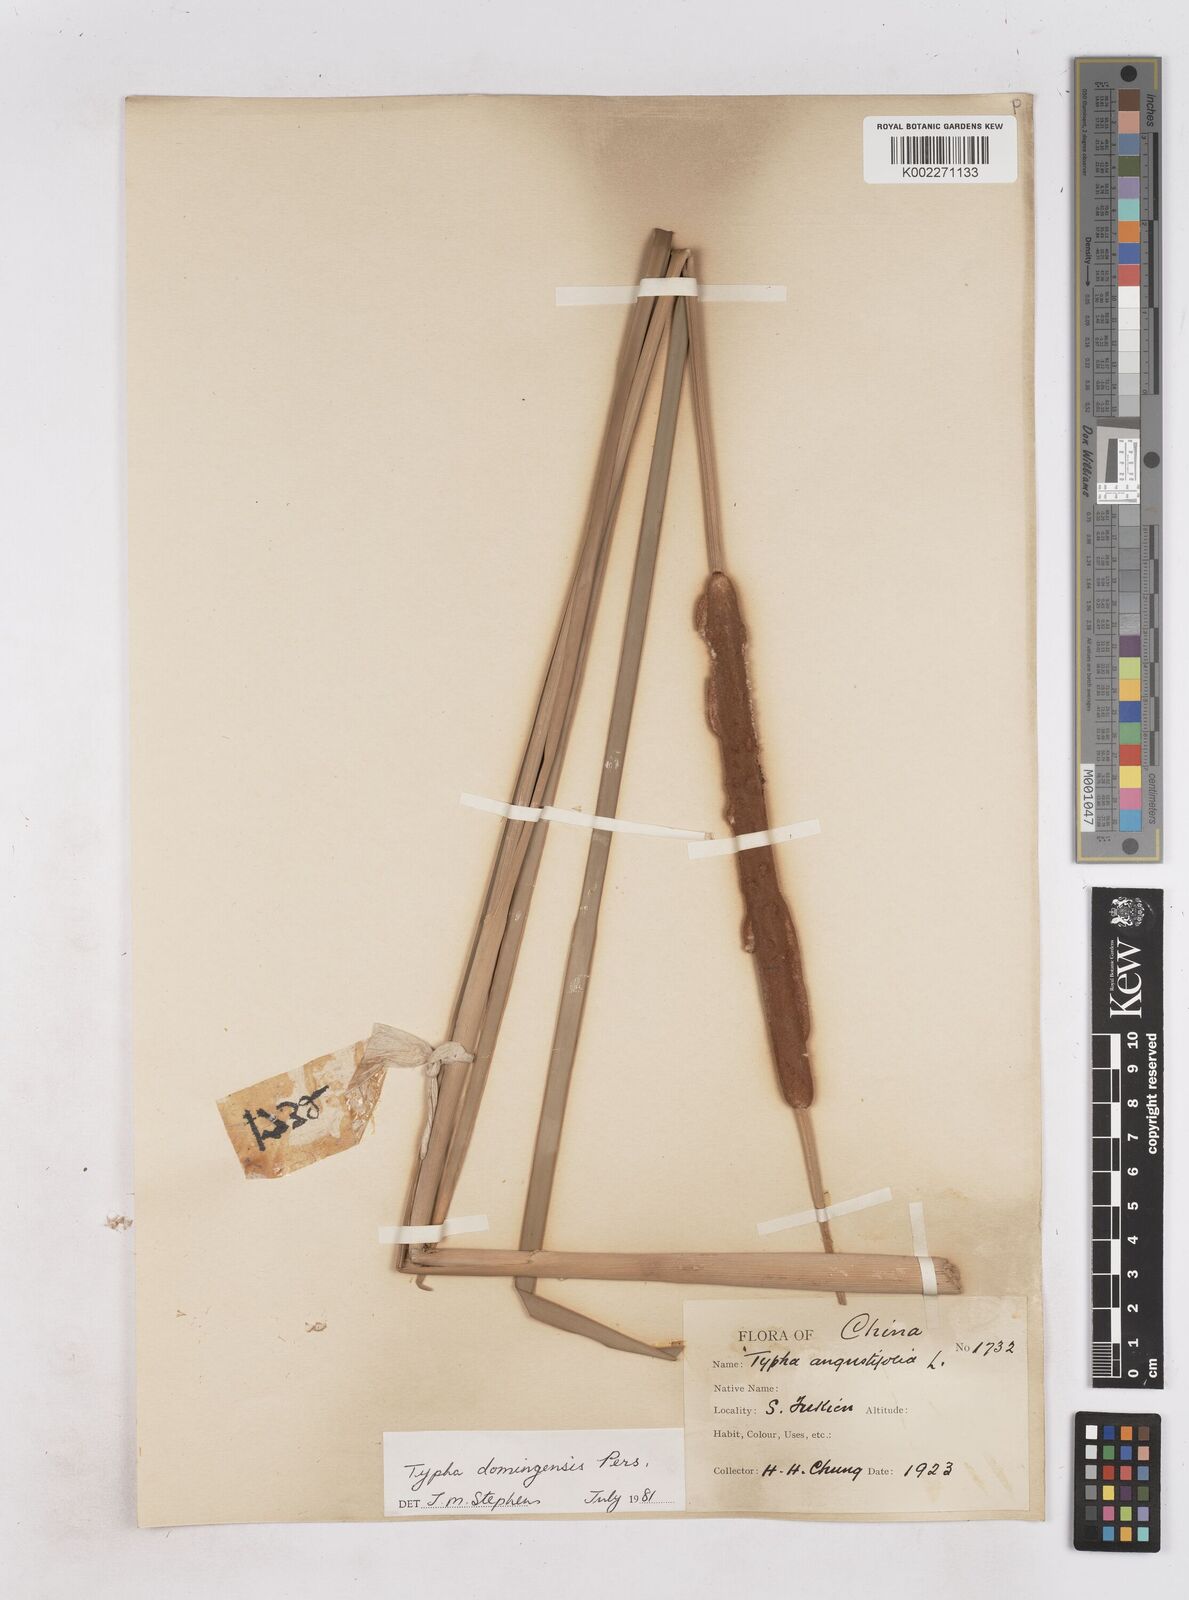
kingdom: Plantae
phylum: Tracheophyta
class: Liliopsida
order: Poales
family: Typhaceae
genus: Typha
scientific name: Typha domingensis
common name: Southern cattail
